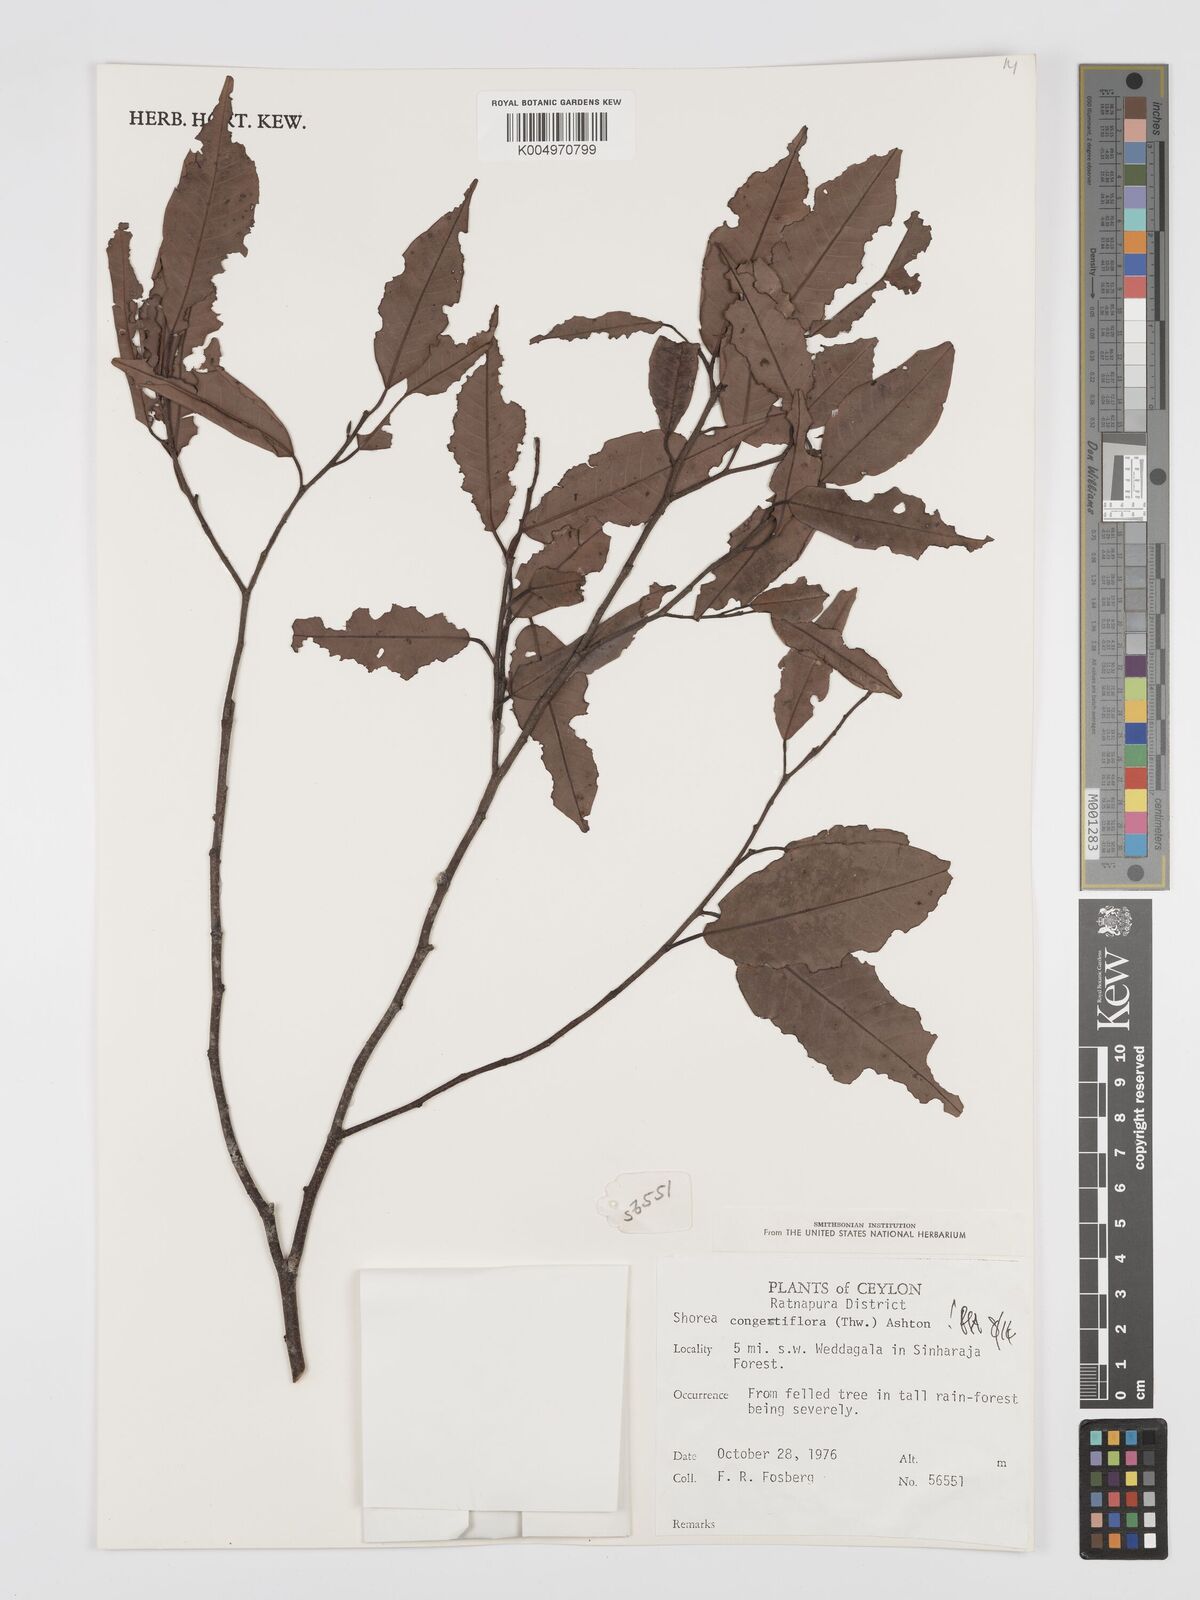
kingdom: Plantae
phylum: Tracheophyta
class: Magnoliopsida
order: Malvales
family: Dipterocarpaceae
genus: Doona
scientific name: Doona congestiflora
